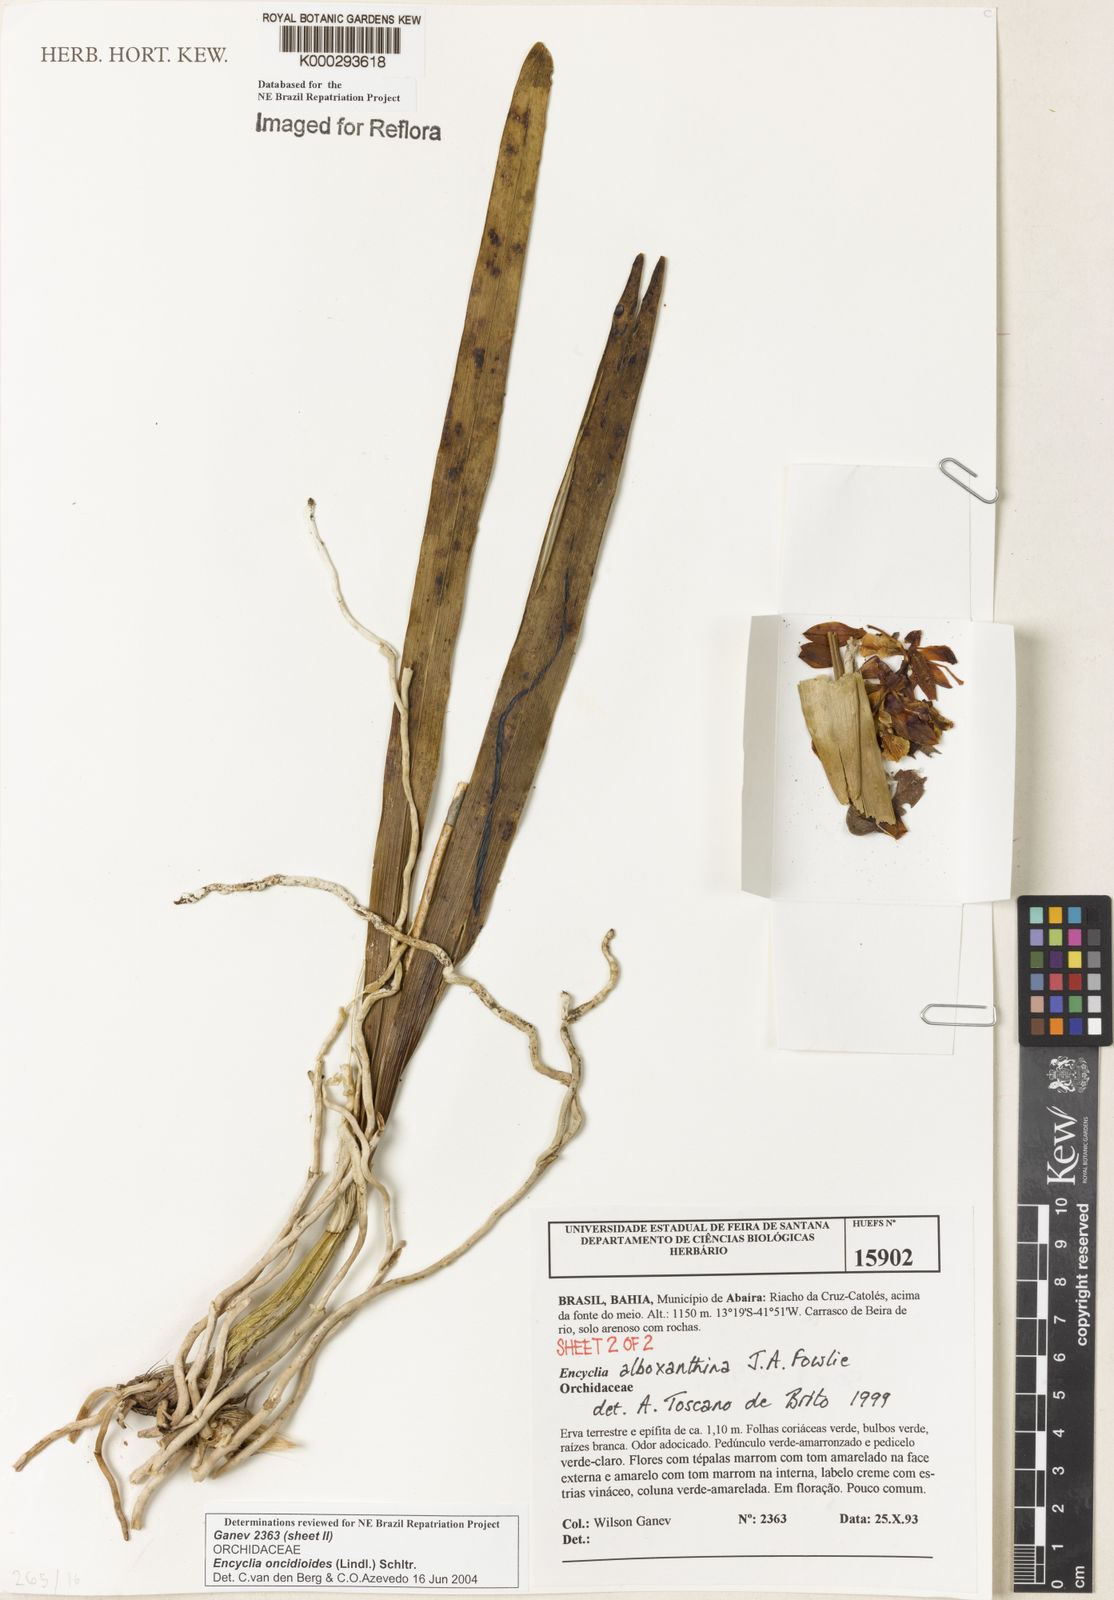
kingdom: Plantae
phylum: Tracheophyta
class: Liliopsida
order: Asparagales
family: Orchidaceae
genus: Encyclia
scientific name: Encyclia oncidioides
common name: Heavyfruit butterfly orchid
